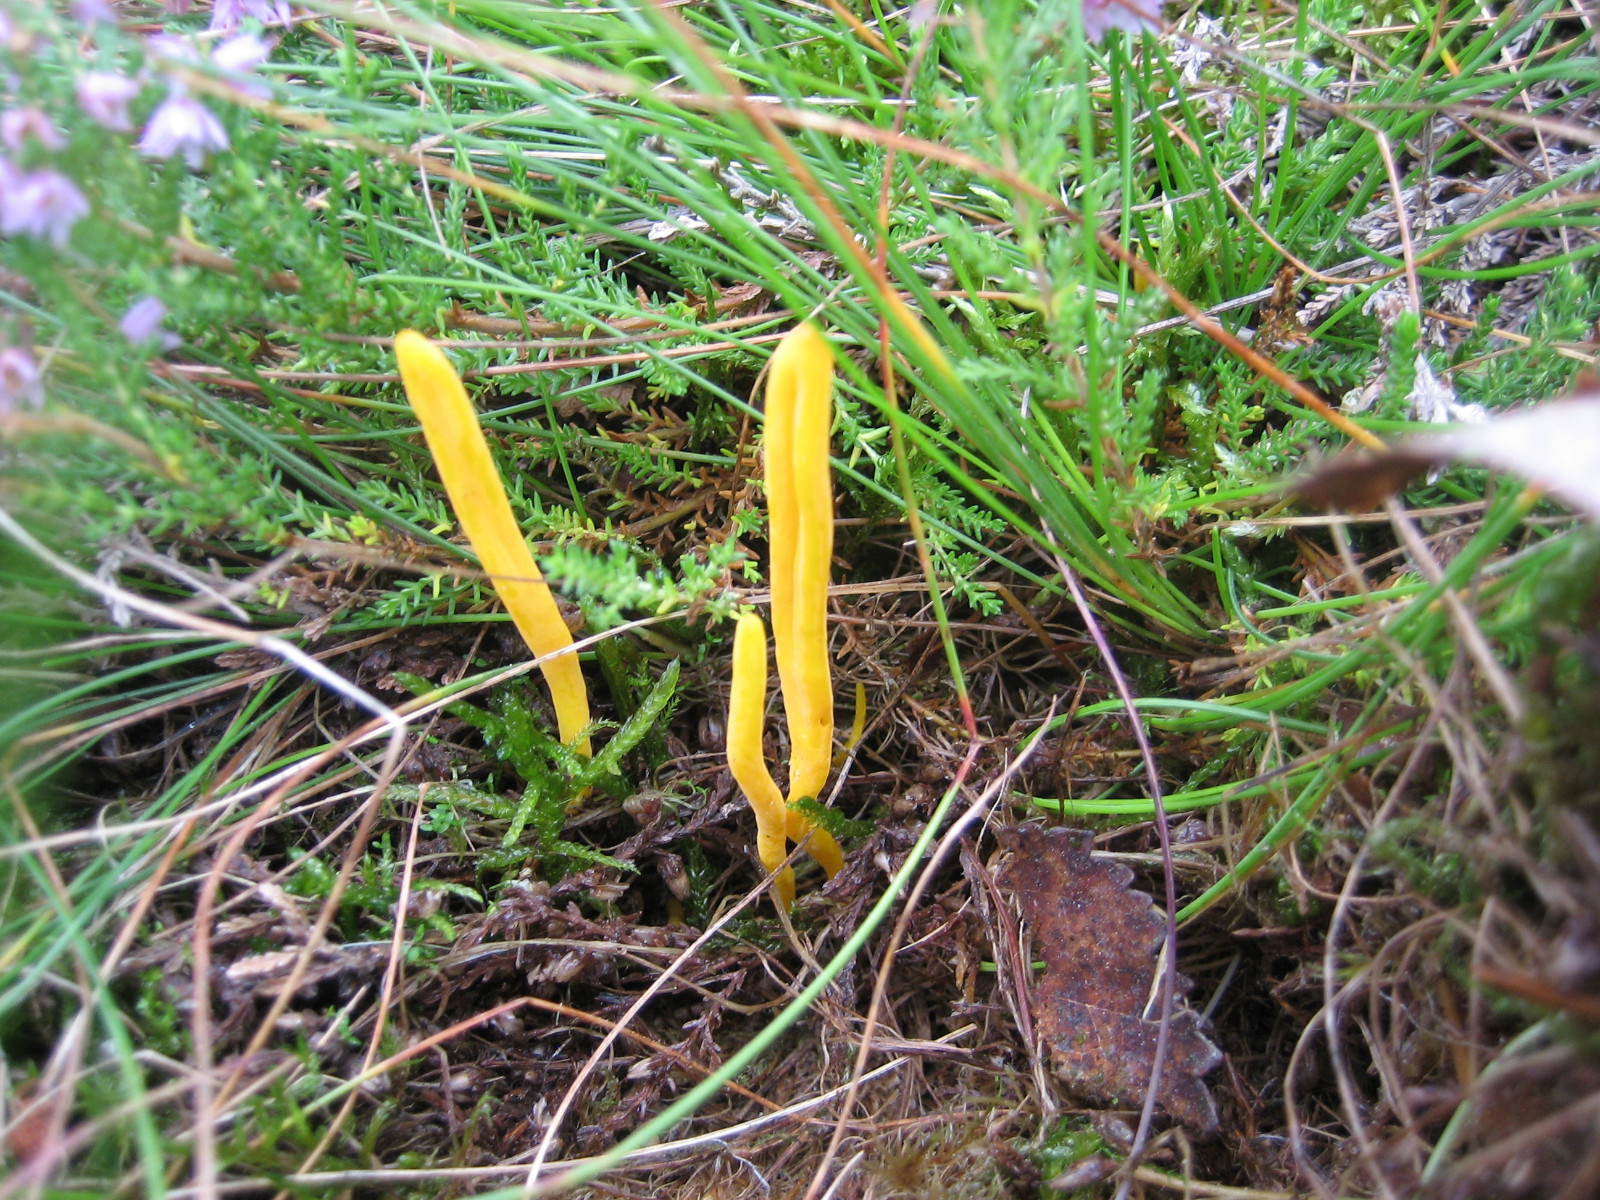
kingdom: Fungi
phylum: Basidiomycota
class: Agaricomycetes
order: Agaricales
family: Clavariaceae
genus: Clavulinopsis
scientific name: Clavulinopsis helvola
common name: orangegul køllesvamp
